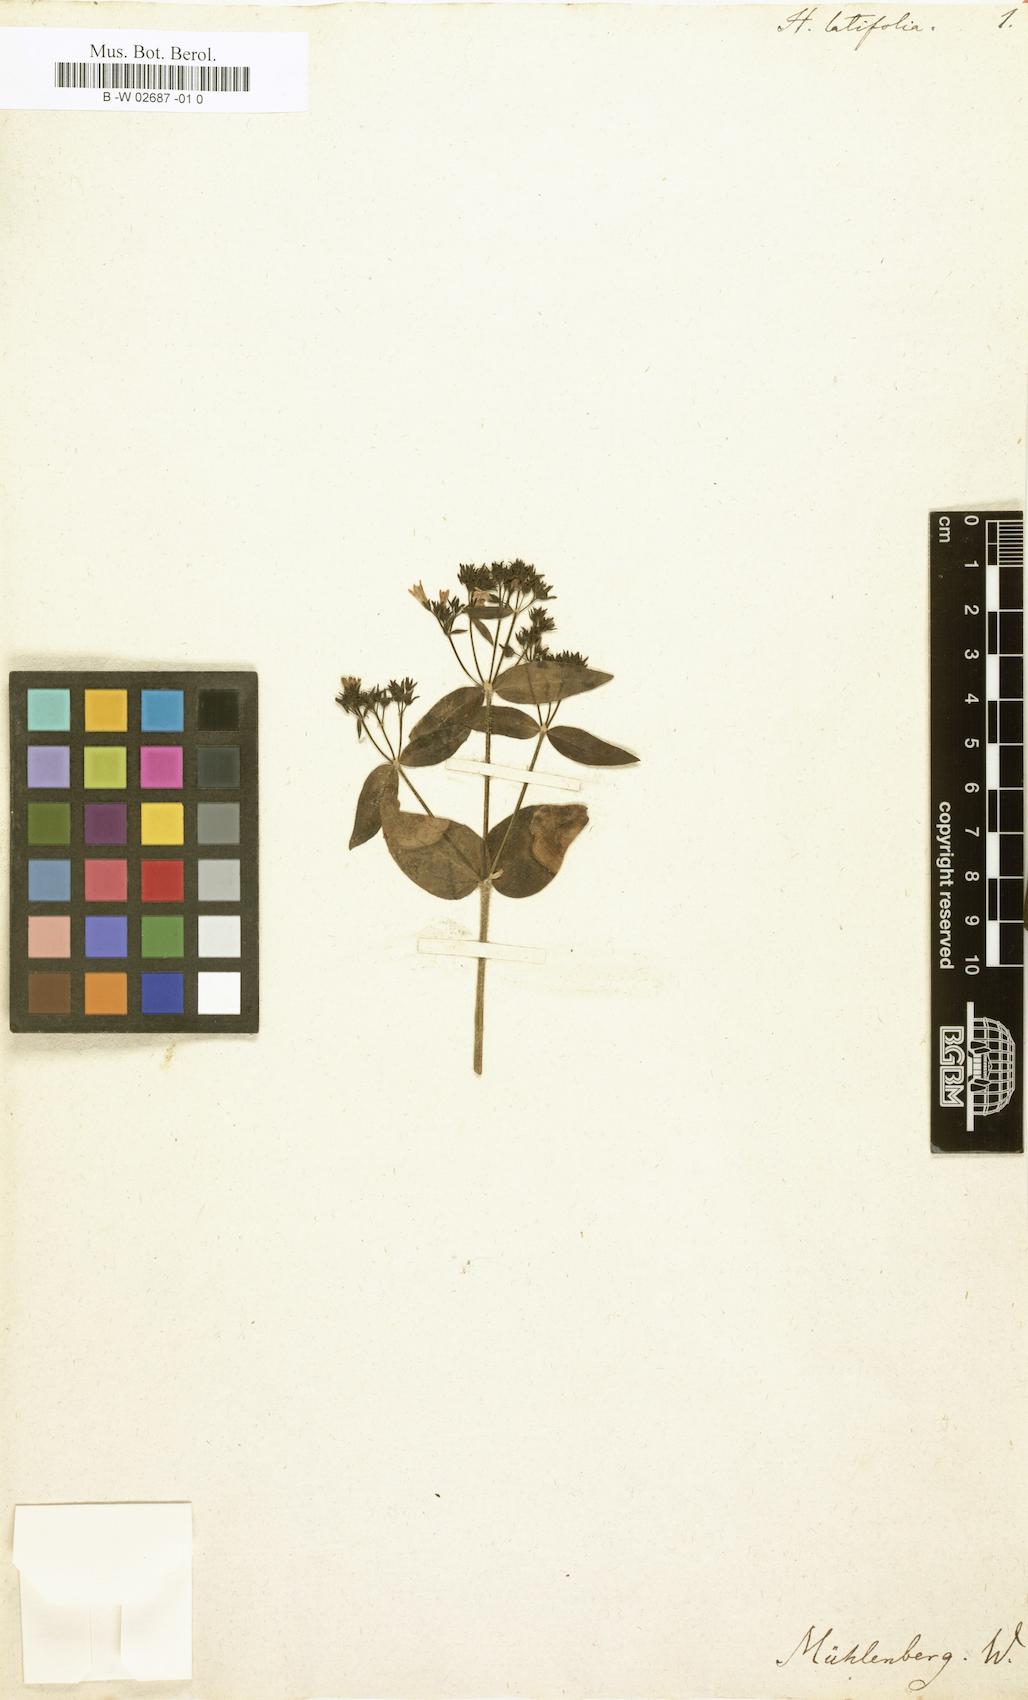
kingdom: Plantae
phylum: Tracheophyta
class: Magnoliopsida
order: Gentianales
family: Rubiaceae
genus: Houstonia
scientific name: Houstonia purpurea
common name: Summer bluet
